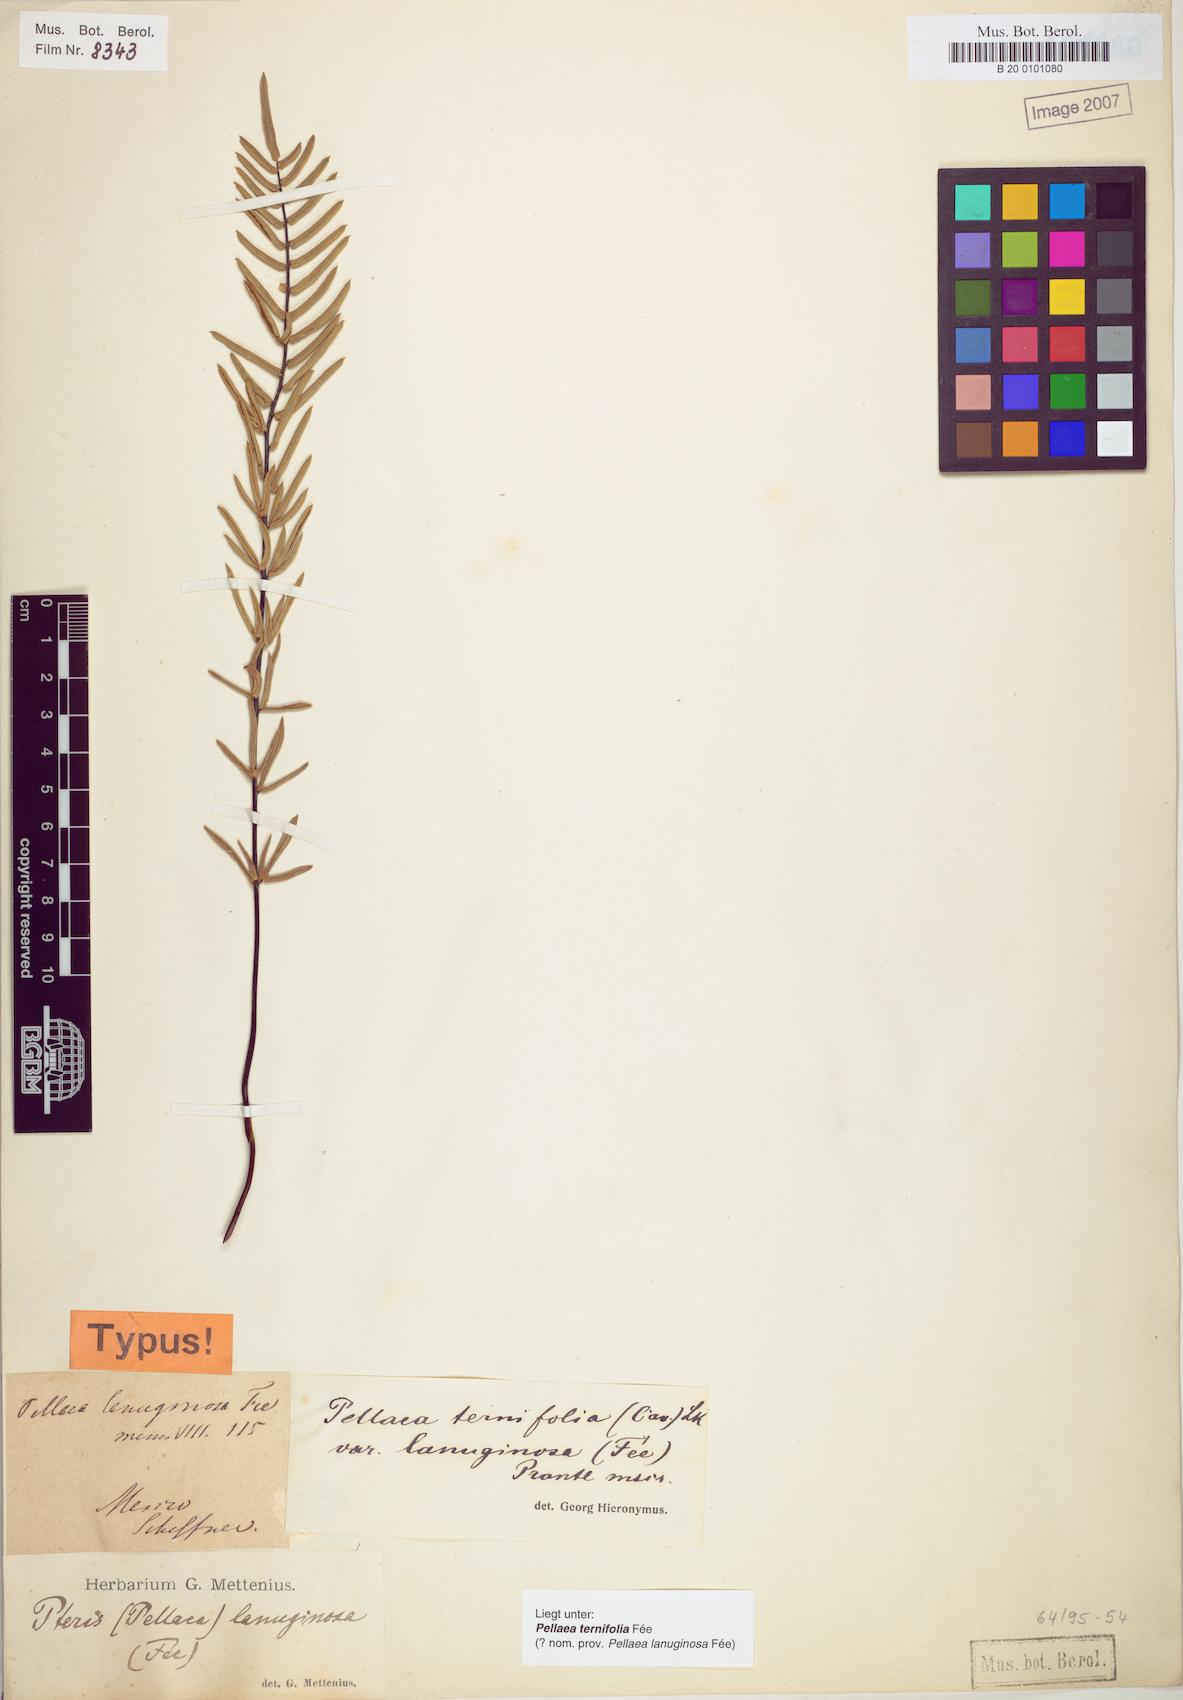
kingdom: Plantae
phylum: Tracheophyta
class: Polypodiopsida
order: Polypodiales
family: Pteridaceae
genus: Pellaea
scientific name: Pellaea ternifolia
